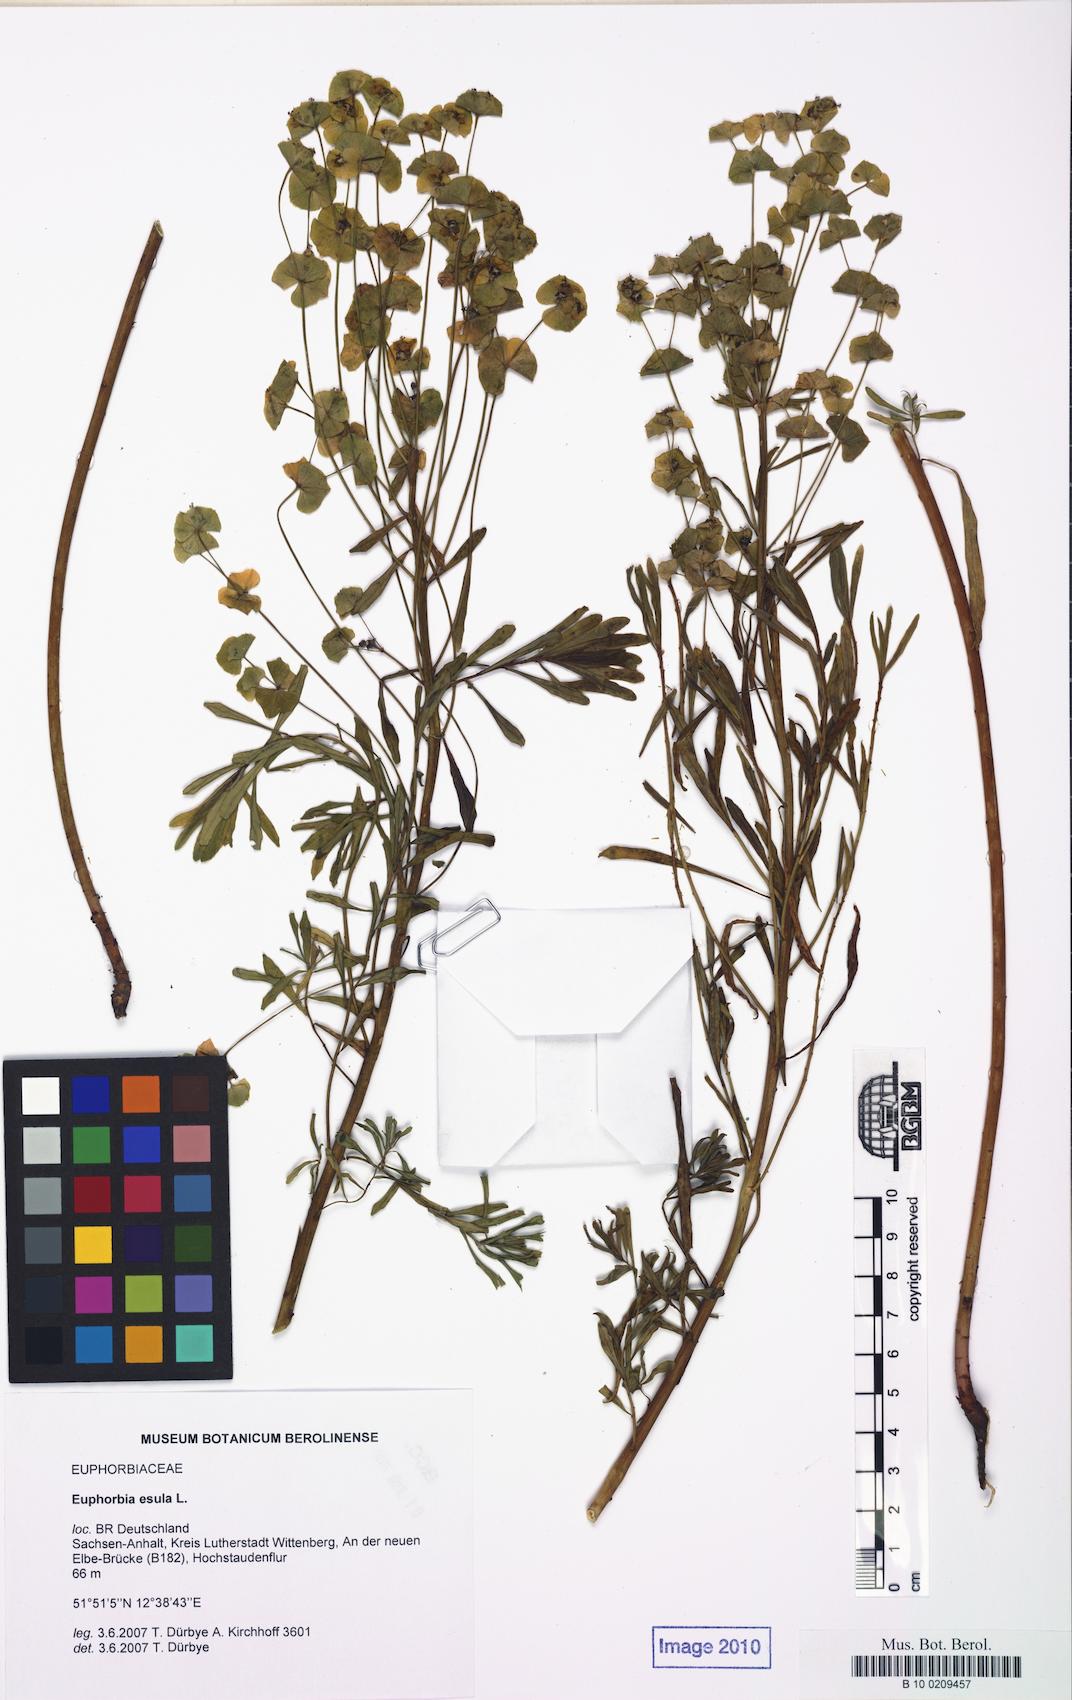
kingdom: Plantae
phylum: Tracheophyta
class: Magnoliopsida
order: Malpighiales
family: Euphorbiaceae
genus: Euphorbia
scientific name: Euphorbia esula
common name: Leafy spurge
